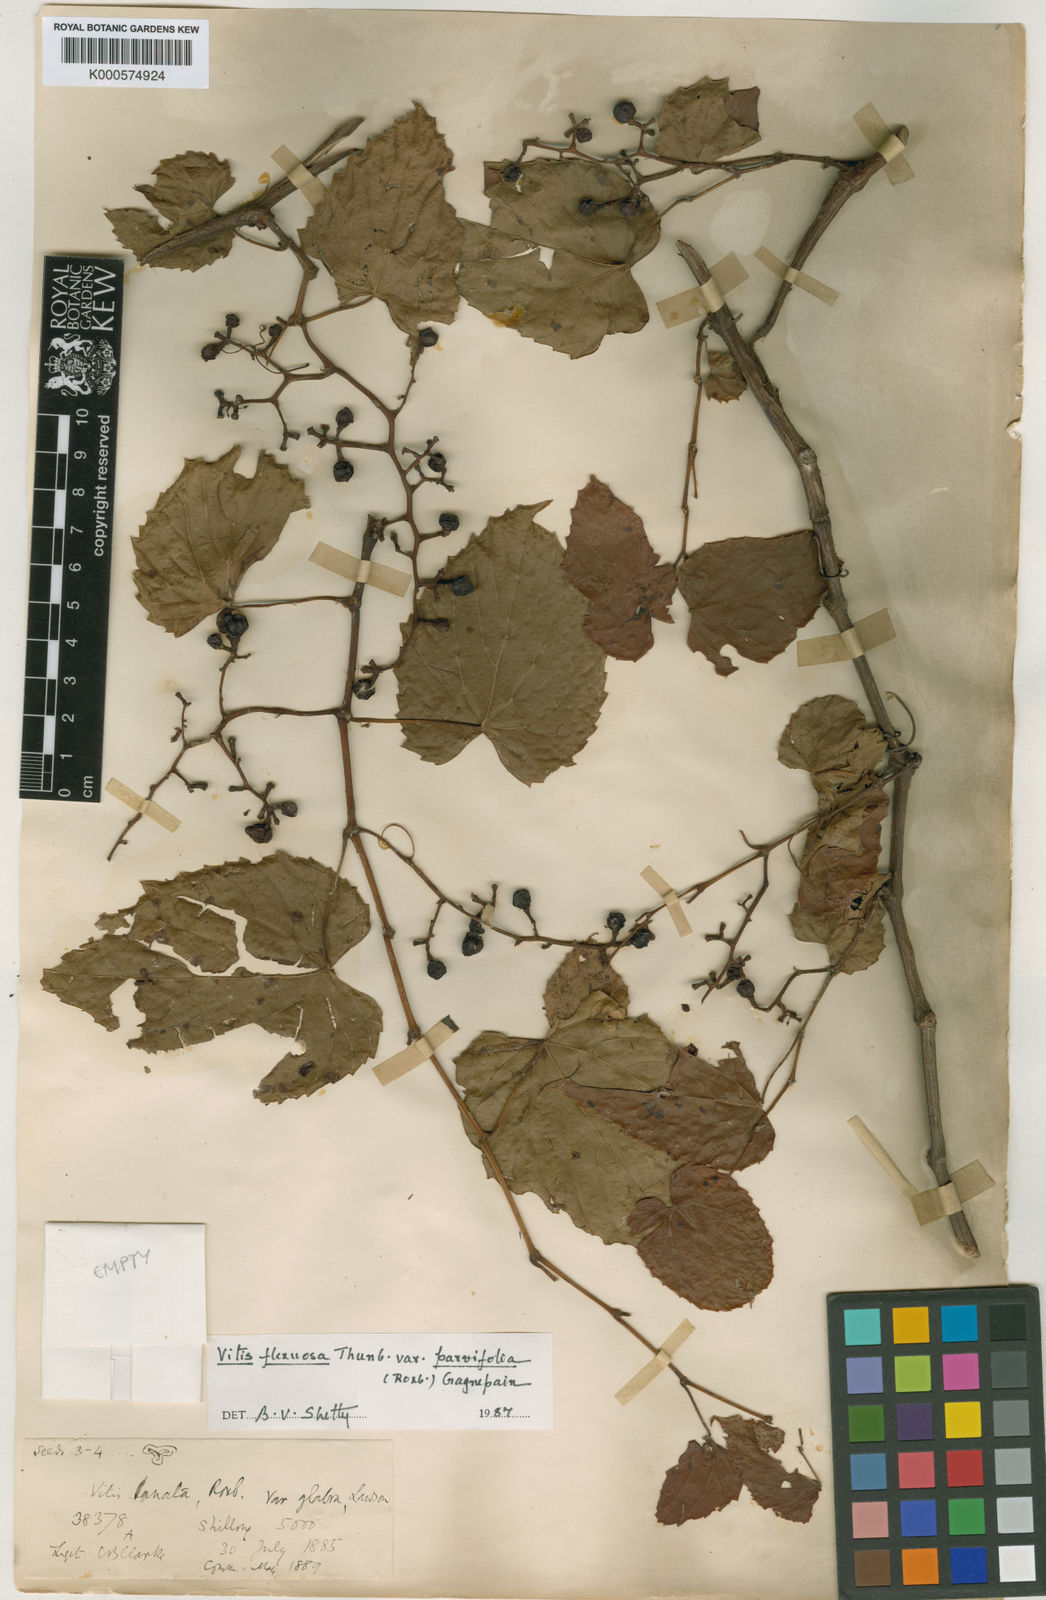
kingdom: Plantae
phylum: Tracheophyta
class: Magnoliopsida
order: Vitales
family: Vitaceae
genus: Vitis
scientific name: Vitis flexuosa
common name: Creeping grape
